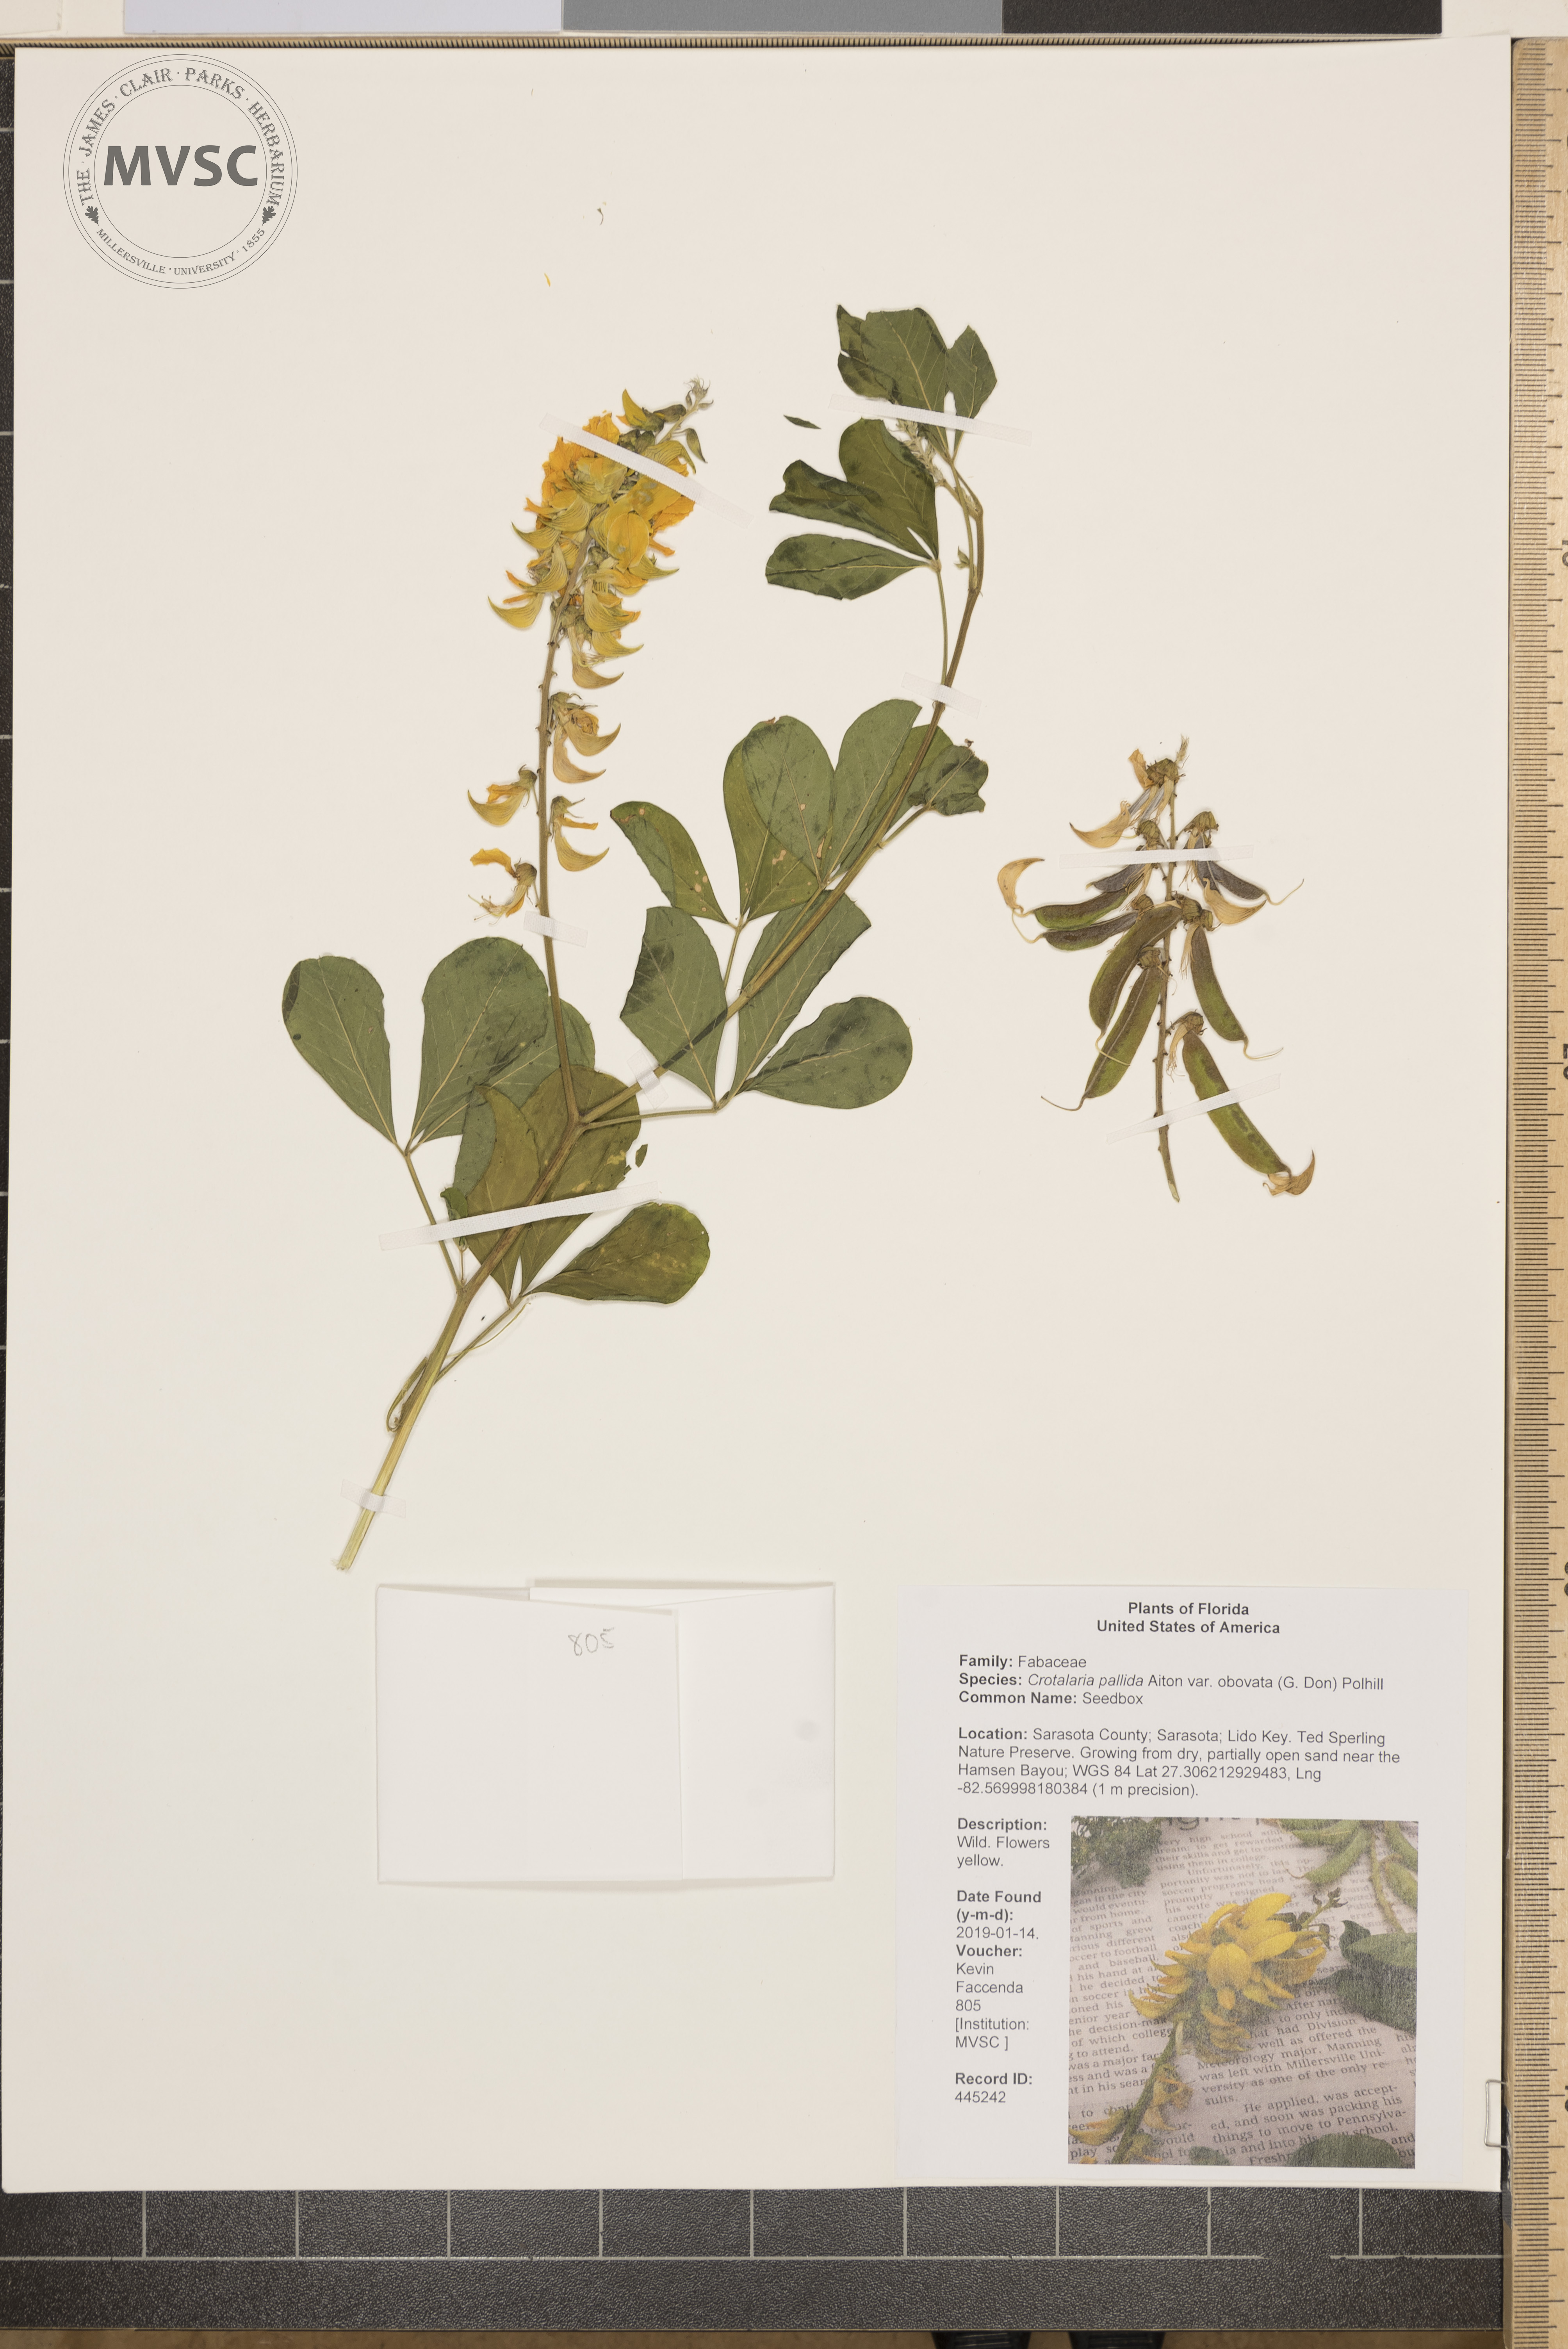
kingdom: Plantae
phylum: Tracheophyta
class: Magnoliopsida
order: Fabales
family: Fabaceae
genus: Crotalaria
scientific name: Crotalaria pallida
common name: Seedbox
